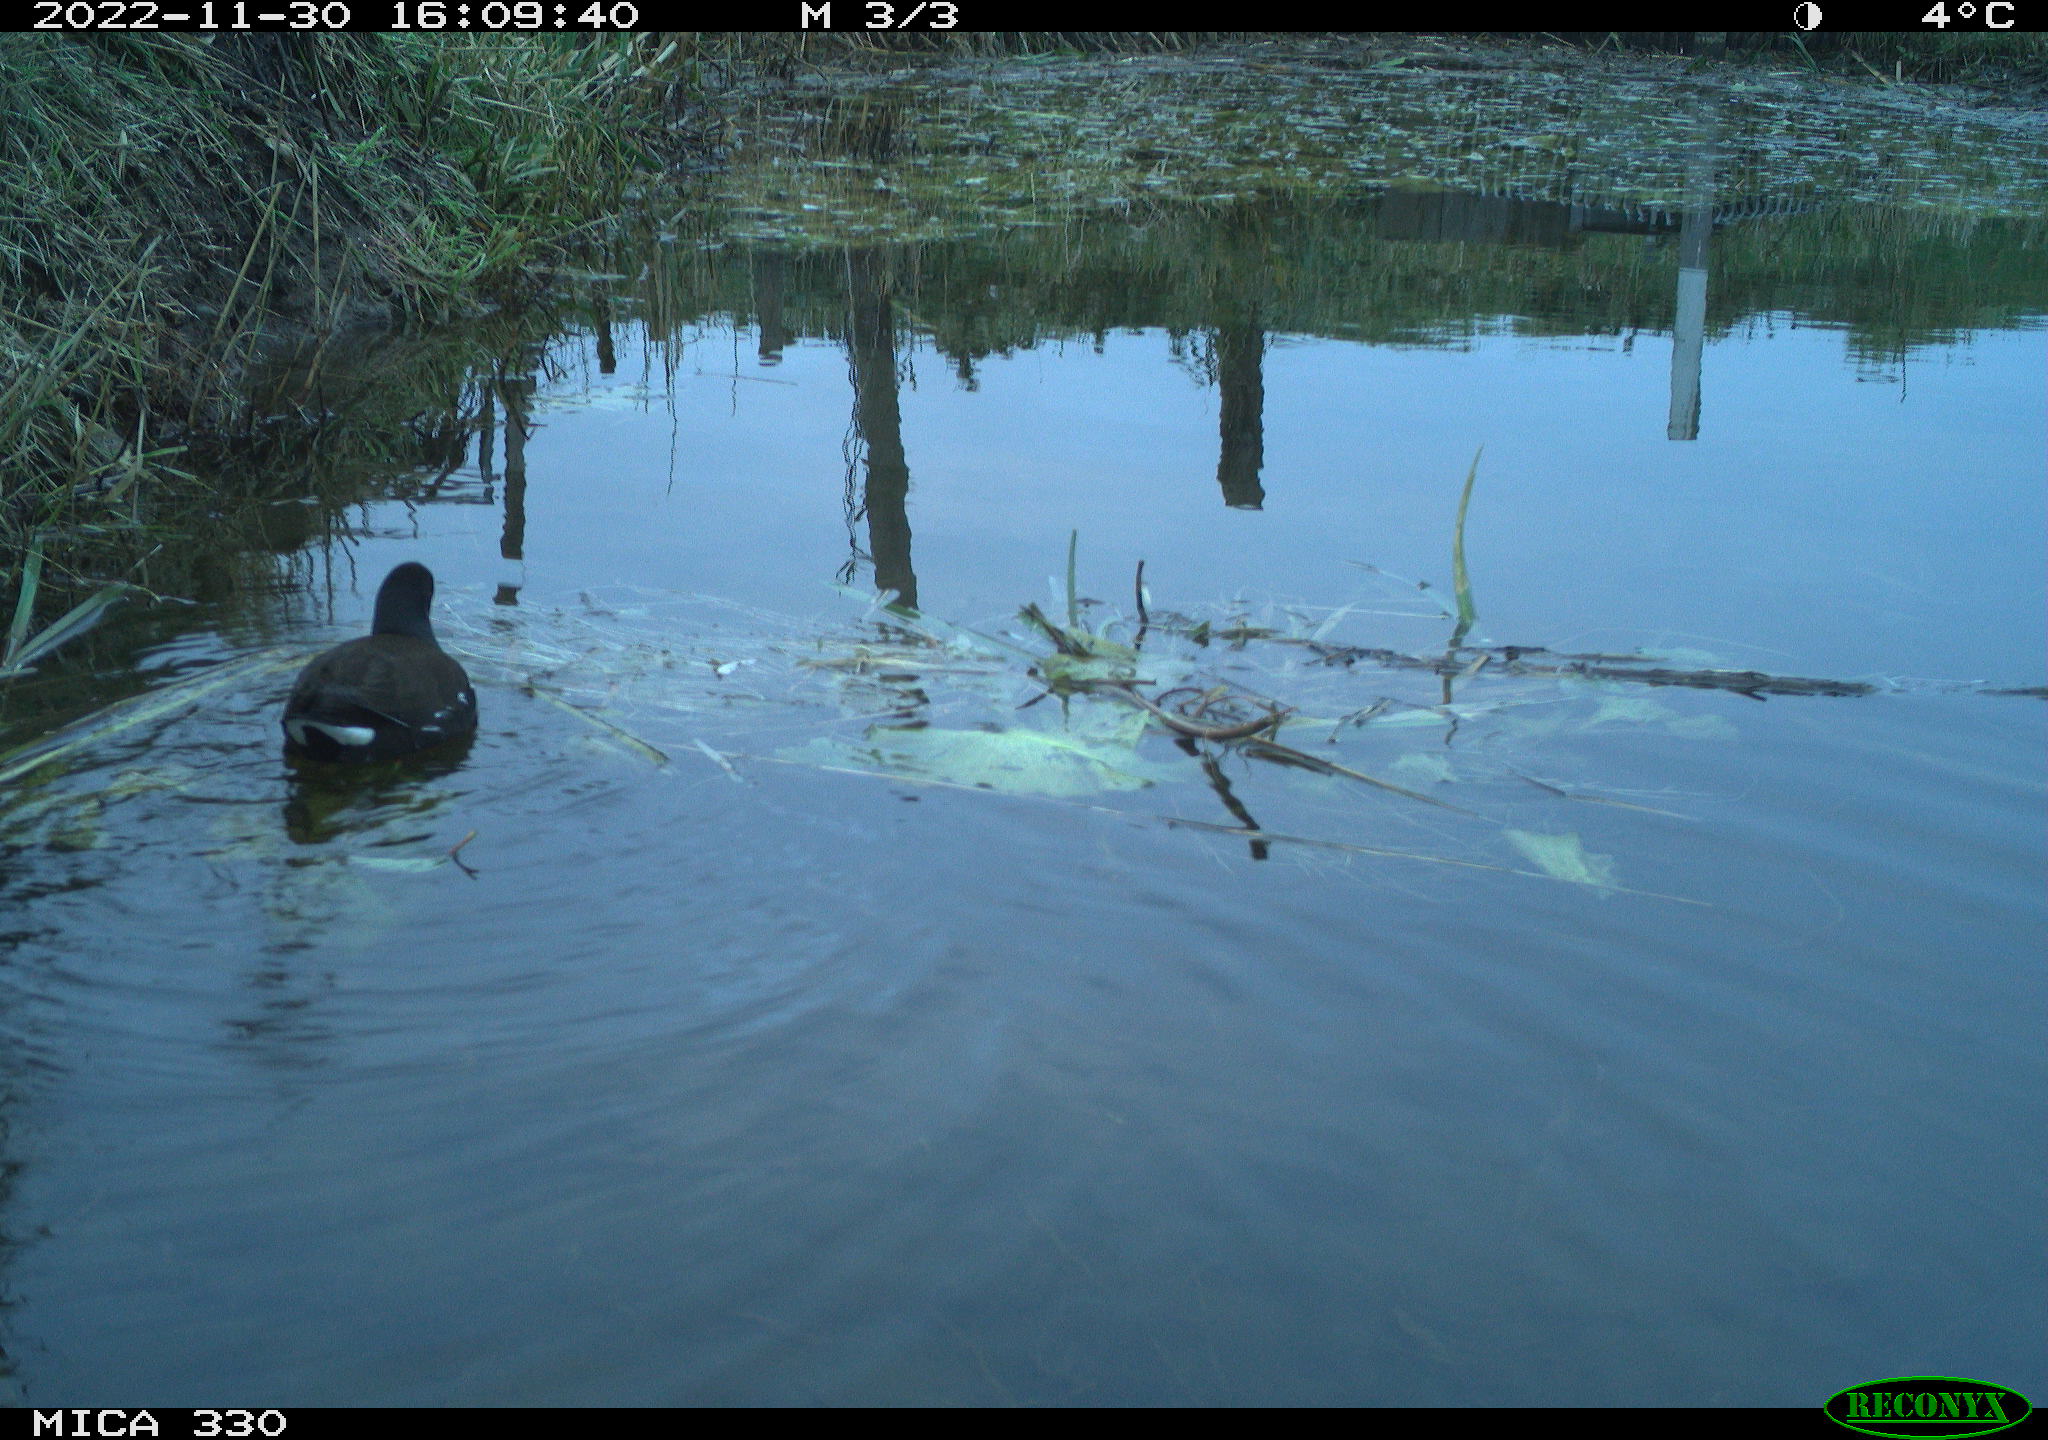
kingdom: Animalia
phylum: Chordata
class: Aves
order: Gruiformes
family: Rallidae
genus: Gallinula
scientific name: Gallinula chloropus
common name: Common moorhen
